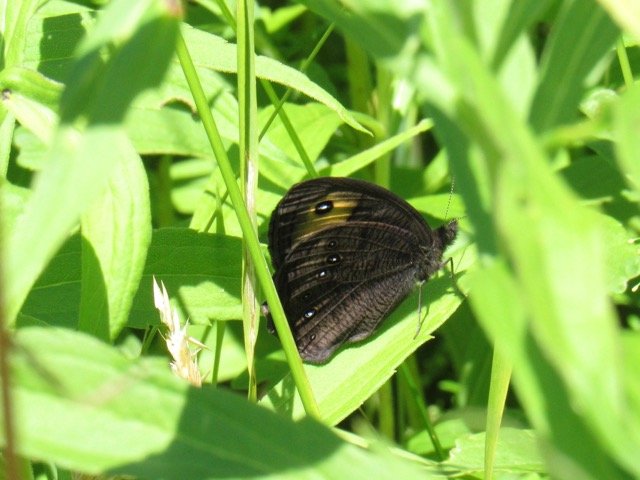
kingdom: Animalia
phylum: Arthropoda
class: Insecta
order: Lepidoptera
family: Nymphalidae
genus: Cercyonis
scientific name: Cercyonis pegala
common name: Common Wood-Nymph
